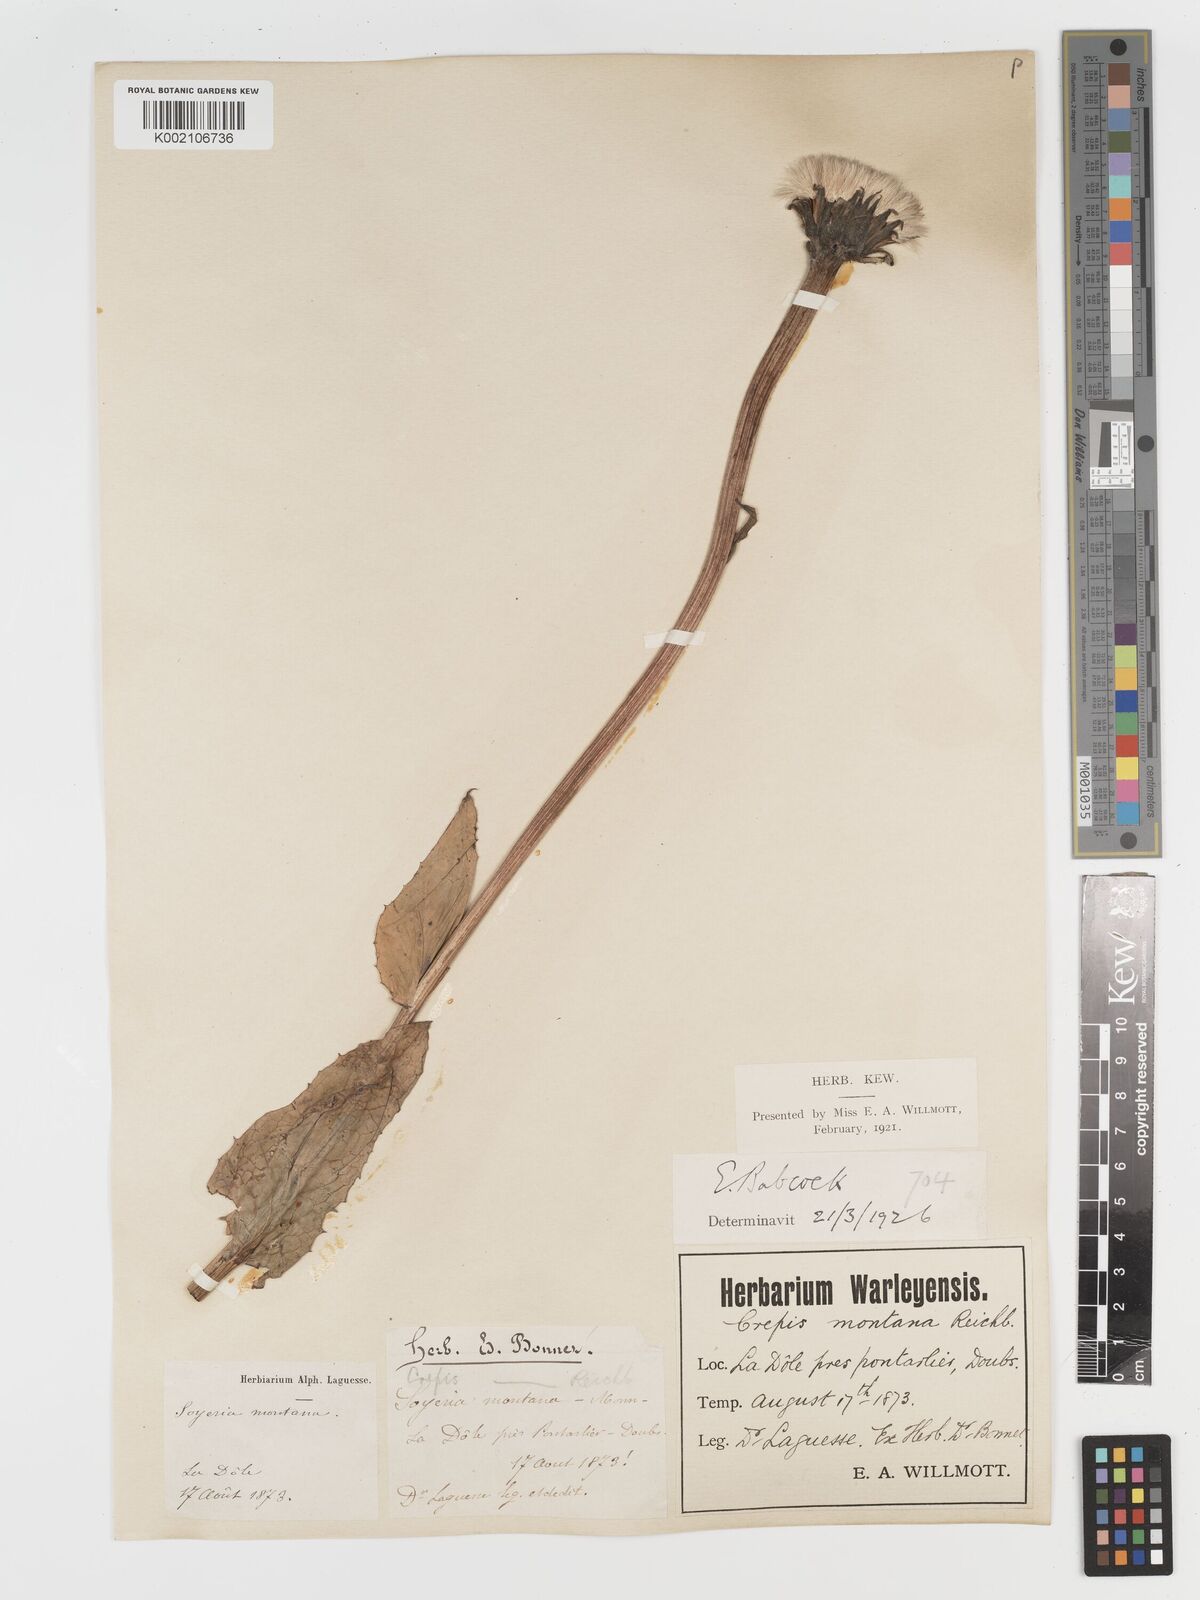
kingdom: Plantae
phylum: Tracheophyta
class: Magnoliopsida
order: Asterales
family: Asteraceae
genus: Crepis
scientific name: Crepis pontana
